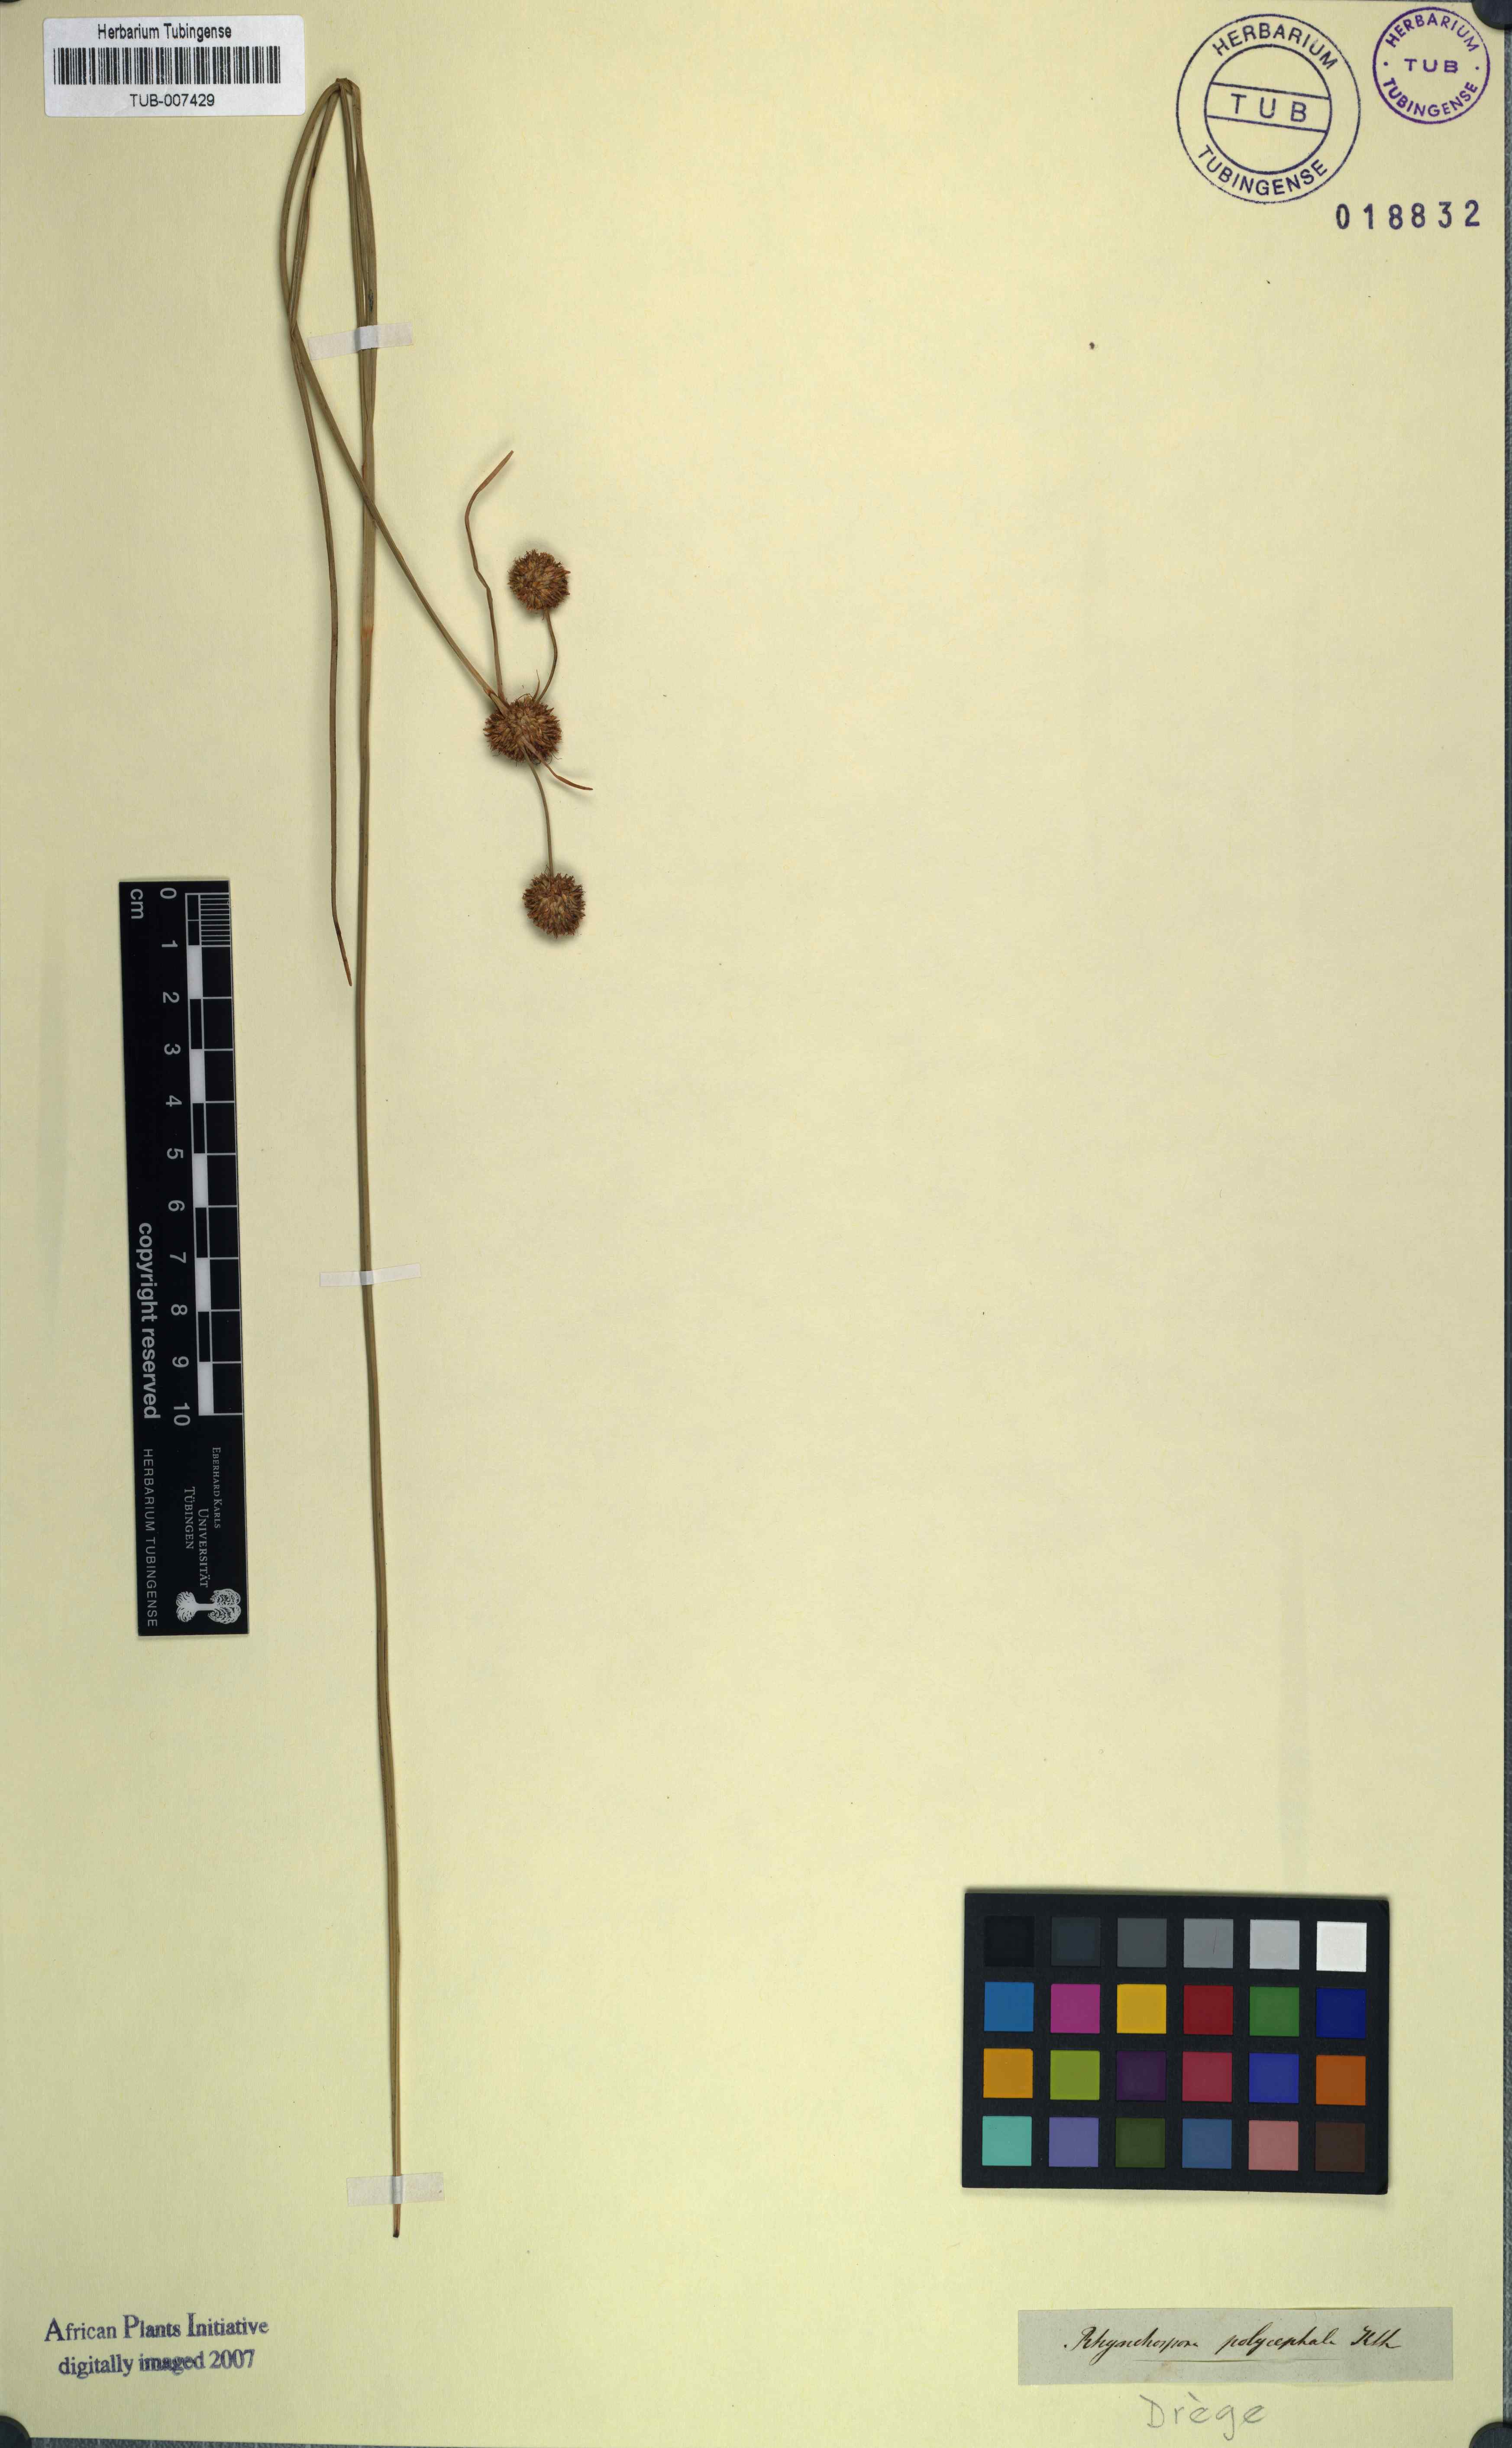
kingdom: Plantae
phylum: Tracheophyta
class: Liliopsida
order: Poales
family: Cyperaceae
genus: Rhynchospora
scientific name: Rhynchospora holoschoenoides
